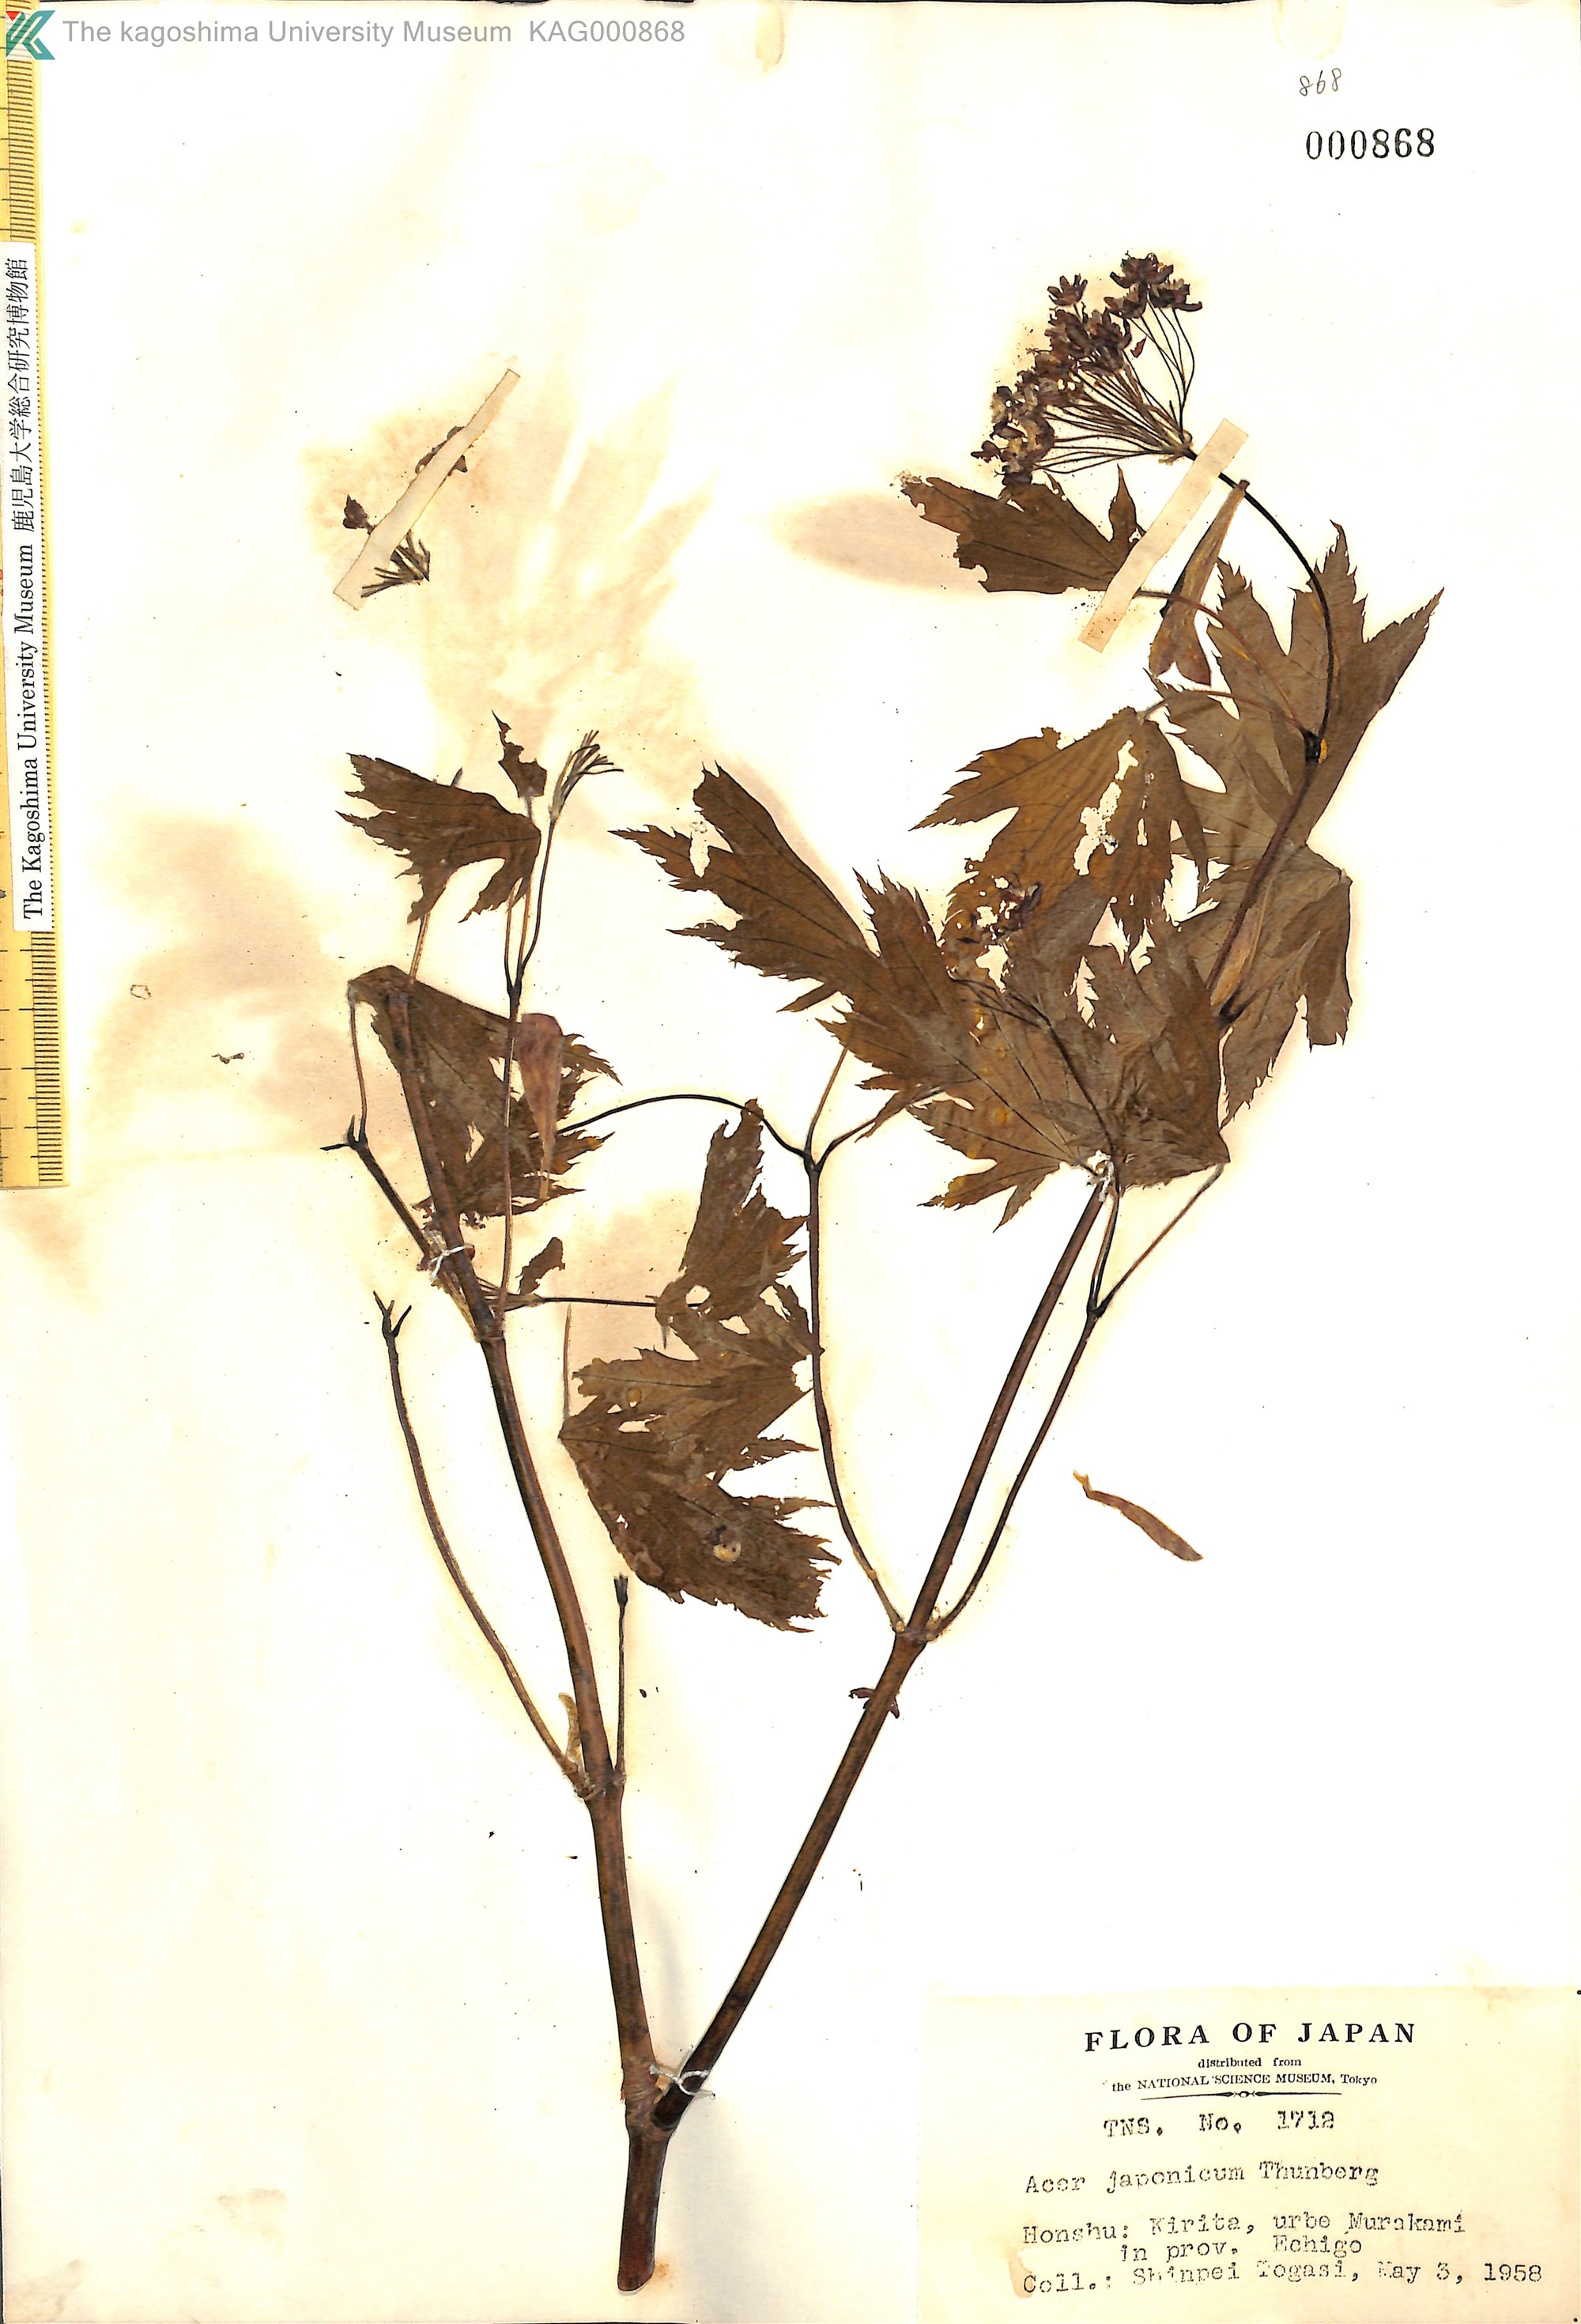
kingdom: Plantae
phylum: Tracheophyta
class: Magnoliopsida
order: Sapindales
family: Sapindaceae
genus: Acer
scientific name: Acer japonicum
